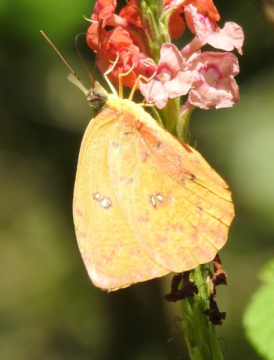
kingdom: Animalia
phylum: Arthropoda
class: Insecta
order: Lepidoptera
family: Pieridae
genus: Phoebis
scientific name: Phoebis philea
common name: Orange-barred Sulphur
